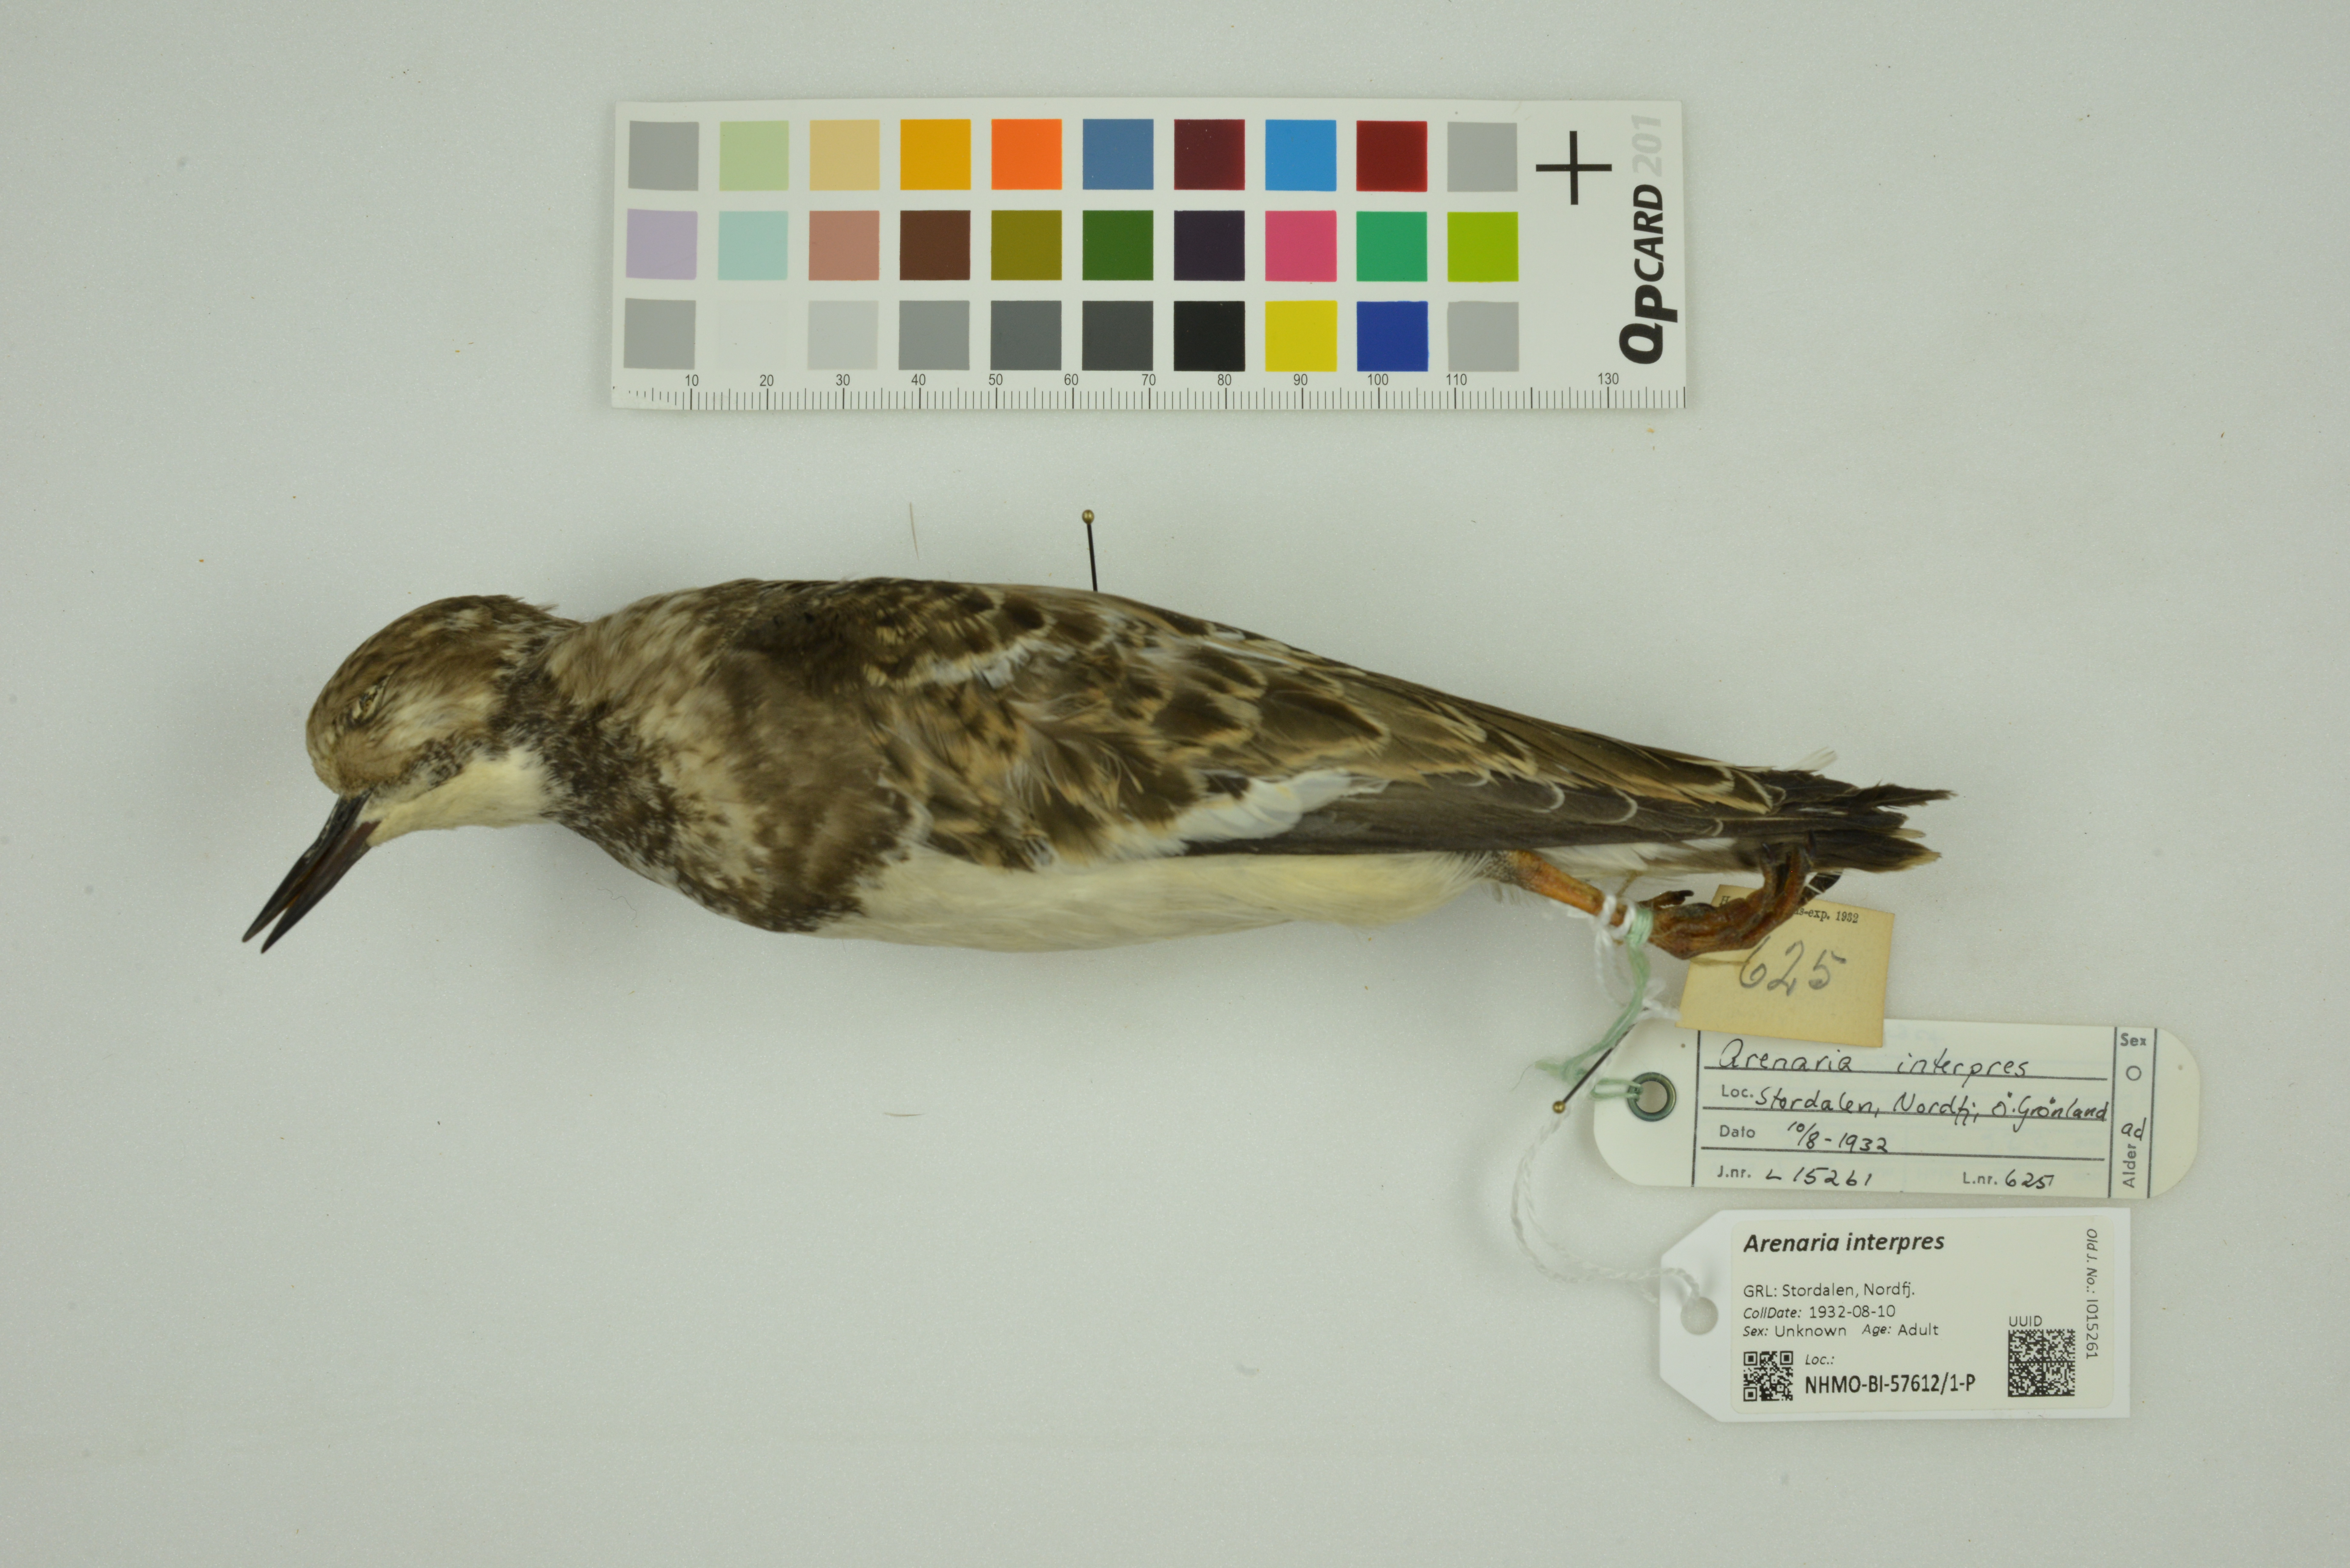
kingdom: Animalia
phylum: Chordata
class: Aves
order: Charadriiformes
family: Scolopacidae
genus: Arenaria
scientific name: Arenaria interpres
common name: Ruddy turnstone
